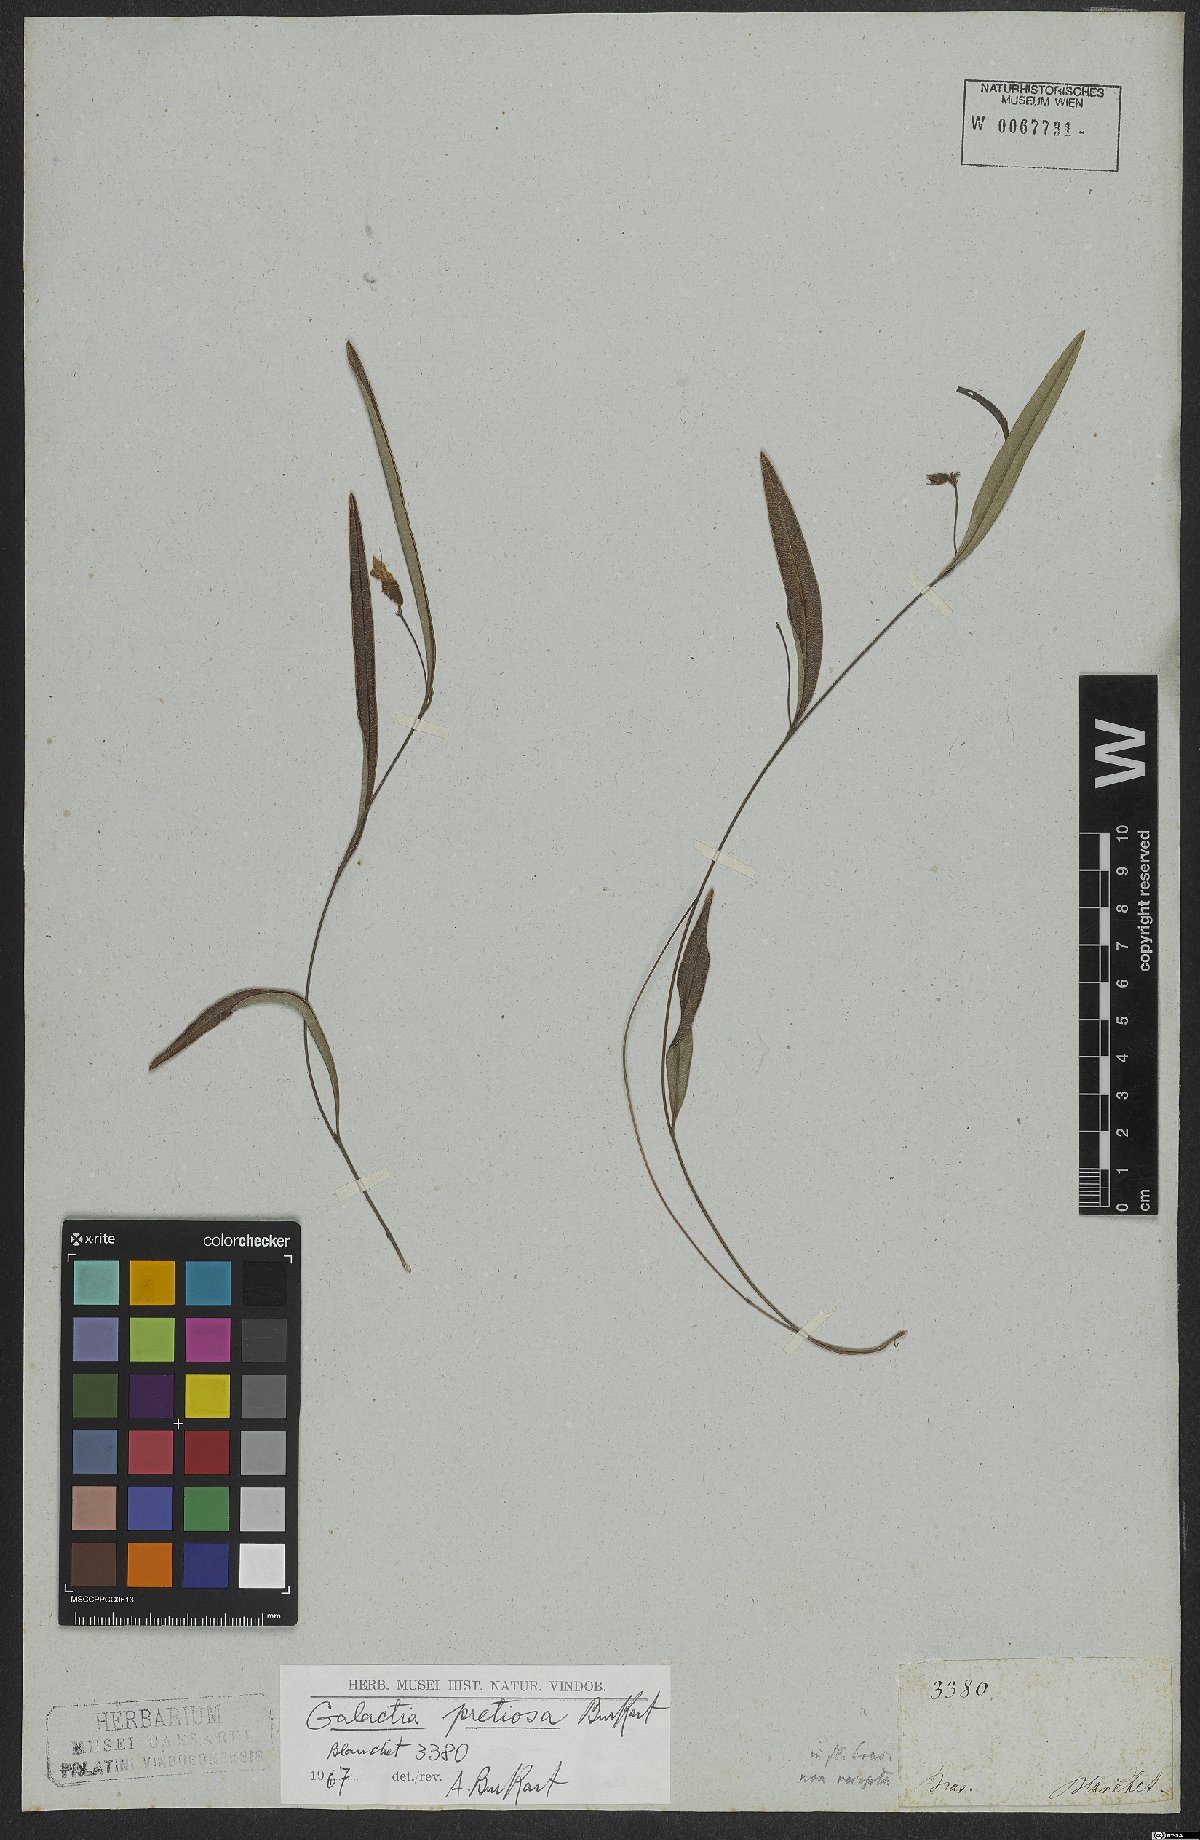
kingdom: Plantae
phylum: Tracheophyta
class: Magnoliopsida
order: Fabales
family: Fabaceae
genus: Nanogalactia
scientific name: Nanogalactia pretiosa
